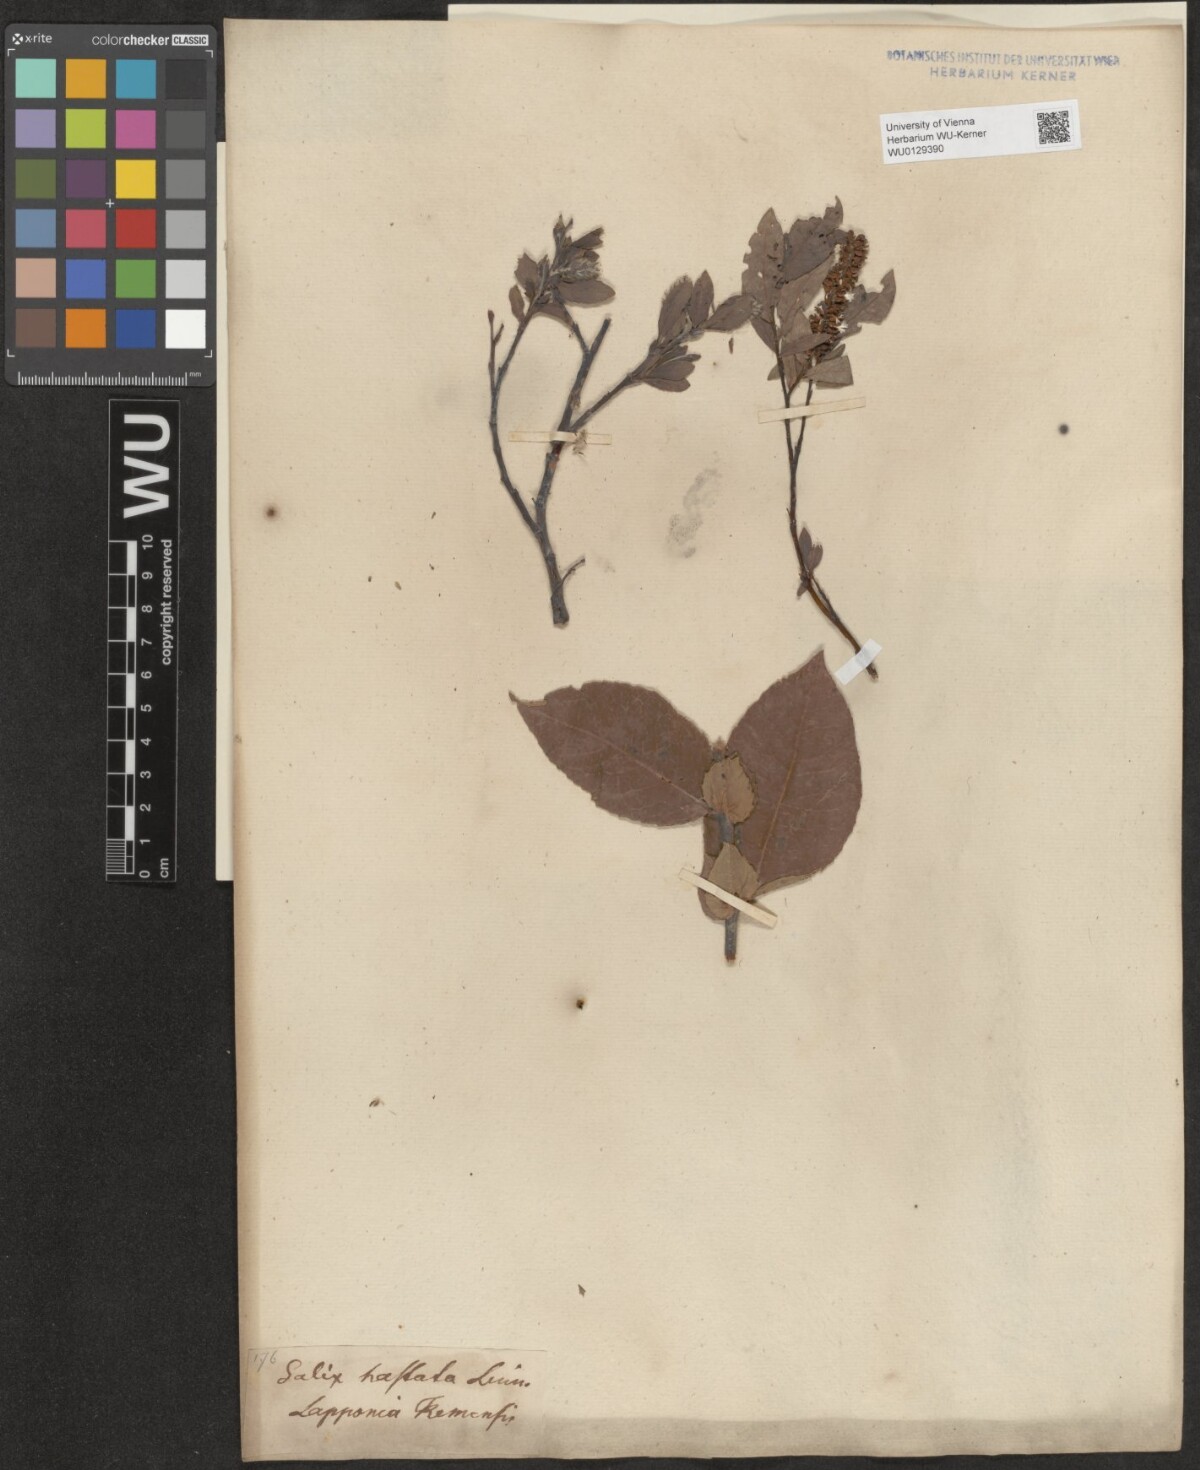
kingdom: Plantae
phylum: Tracheophyta
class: Magnoliopsida
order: Malpighiales
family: Salicaceae
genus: Salix
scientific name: Salix hastata
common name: Halberd willow
